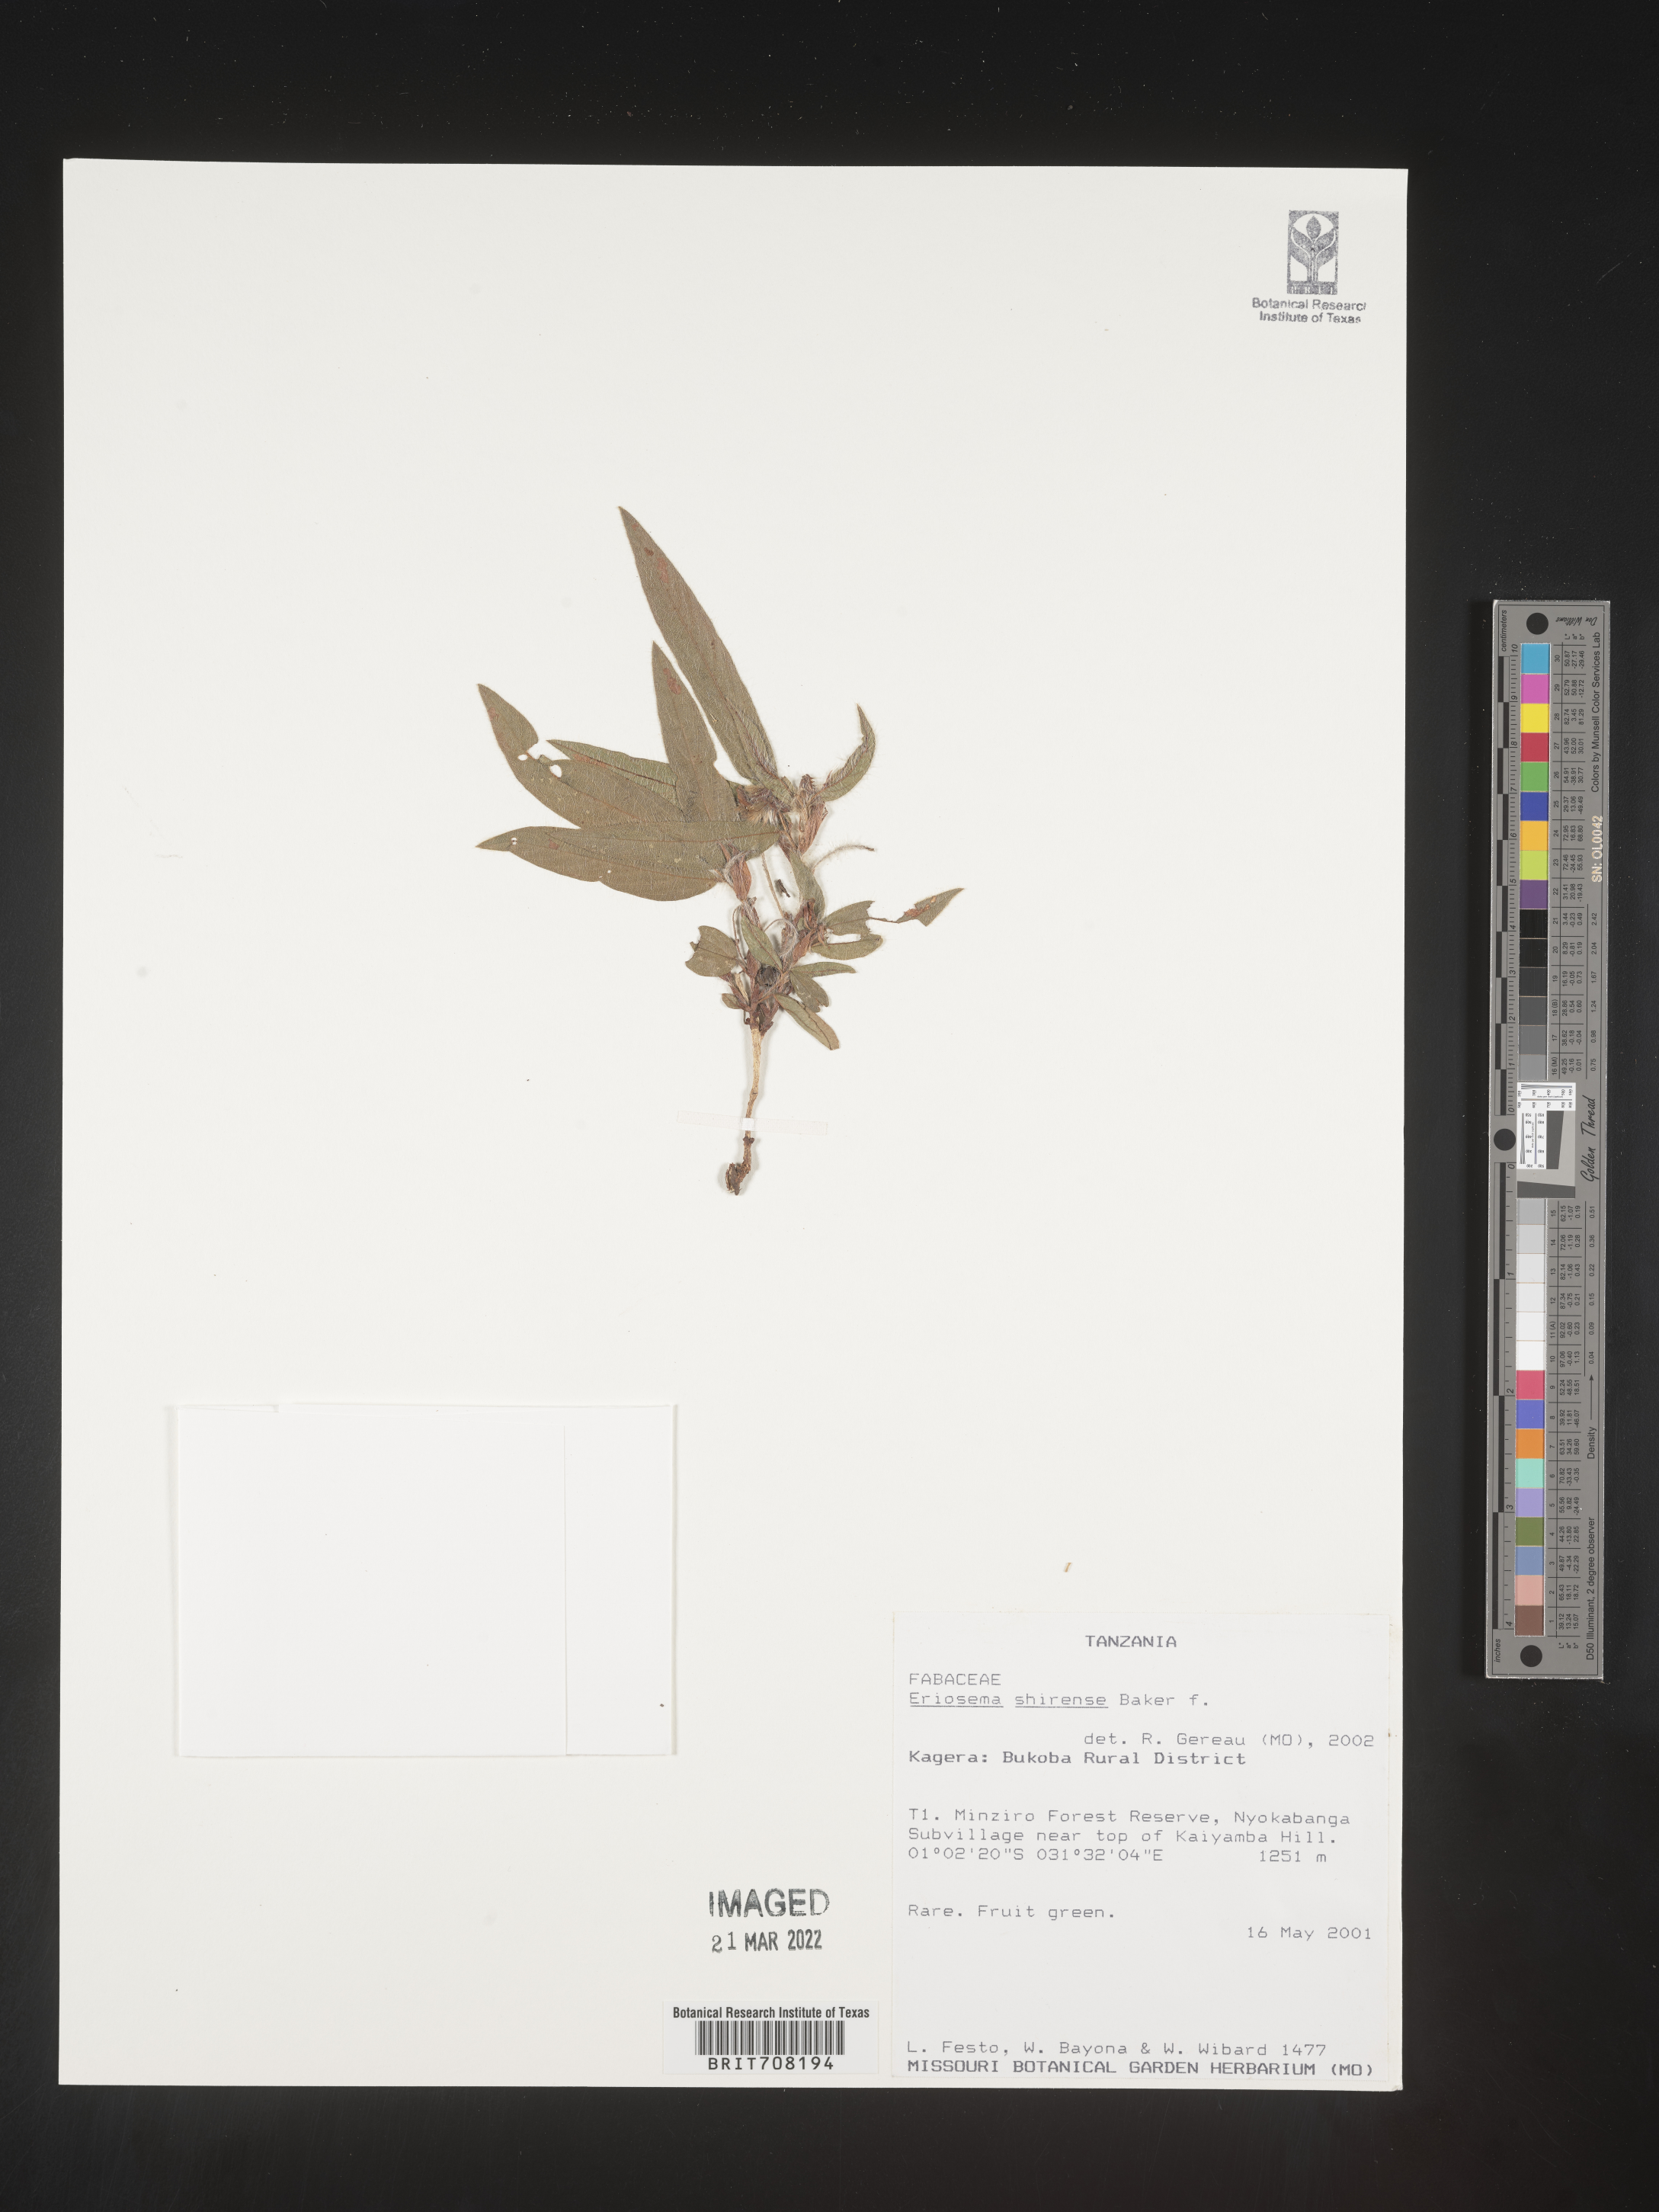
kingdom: Plantae
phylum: Tracheophyta
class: Magnoliopsida
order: Fabales
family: Fabaceae
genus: Eriosema
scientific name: Eriosema
